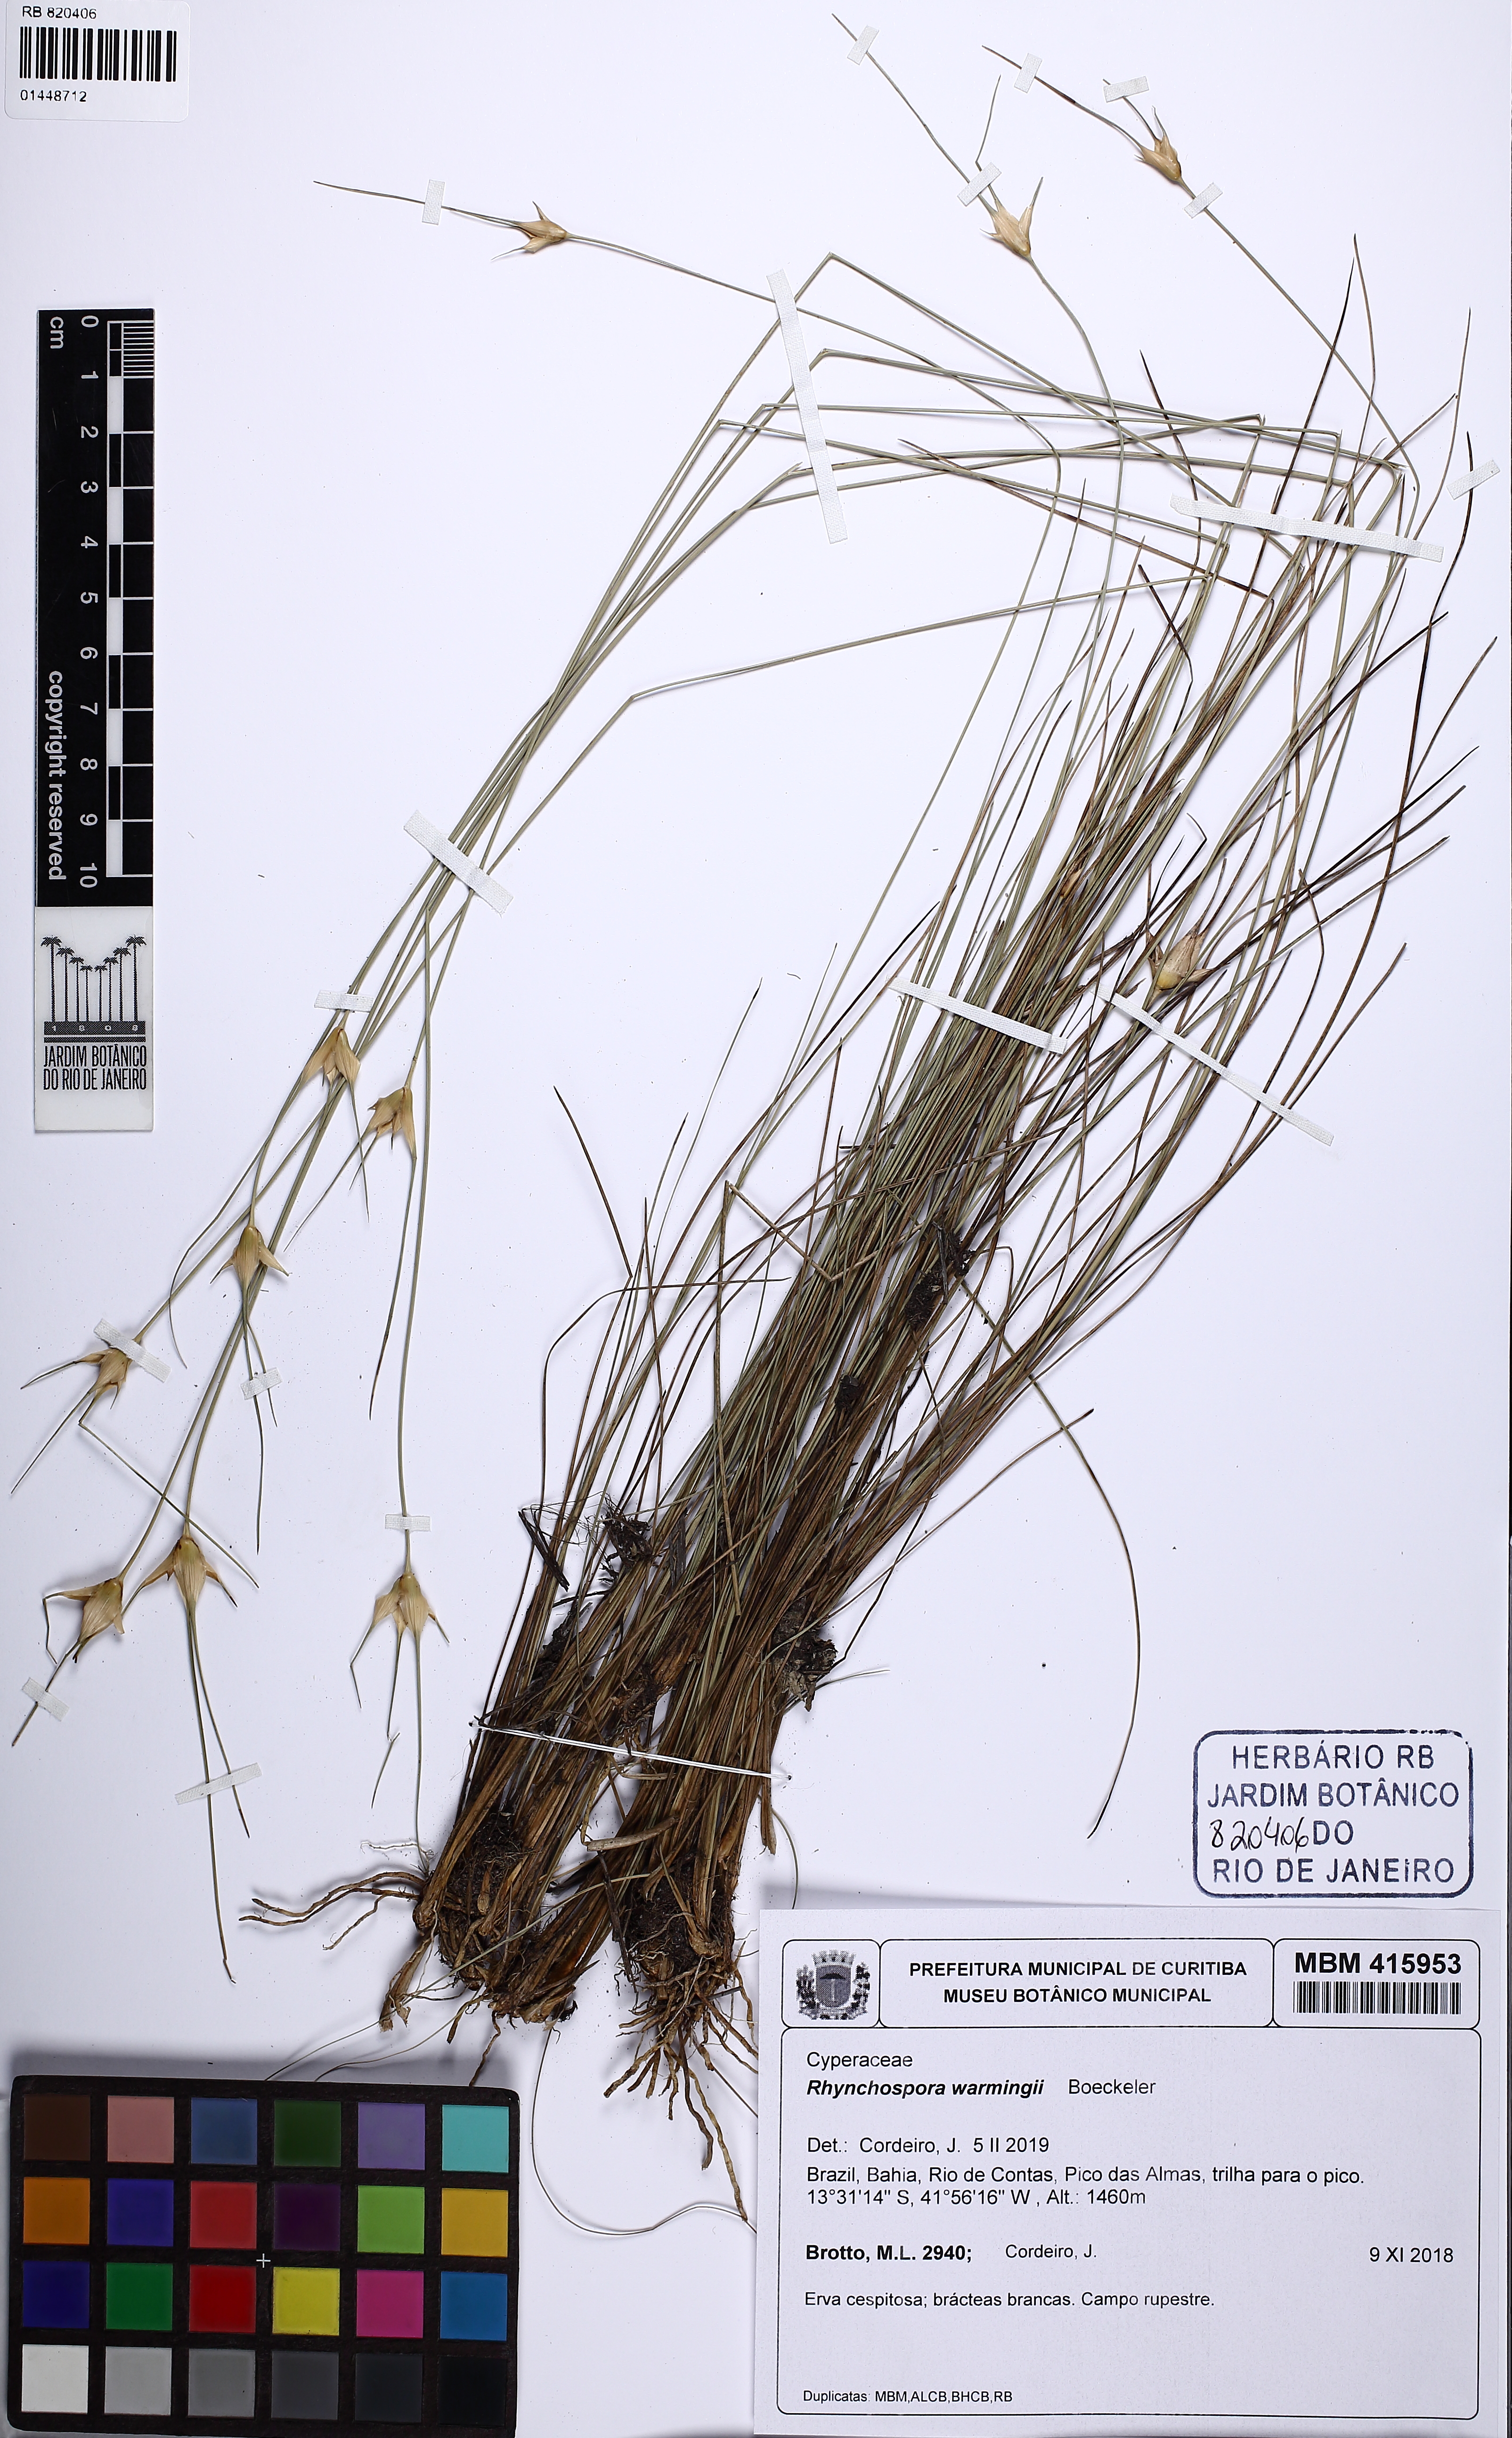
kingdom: Plantae
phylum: Tracheophyta
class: Liliopsida
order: Poales
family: Cyperaceae
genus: Rhynchospora
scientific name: Rhynchospora warmingii
